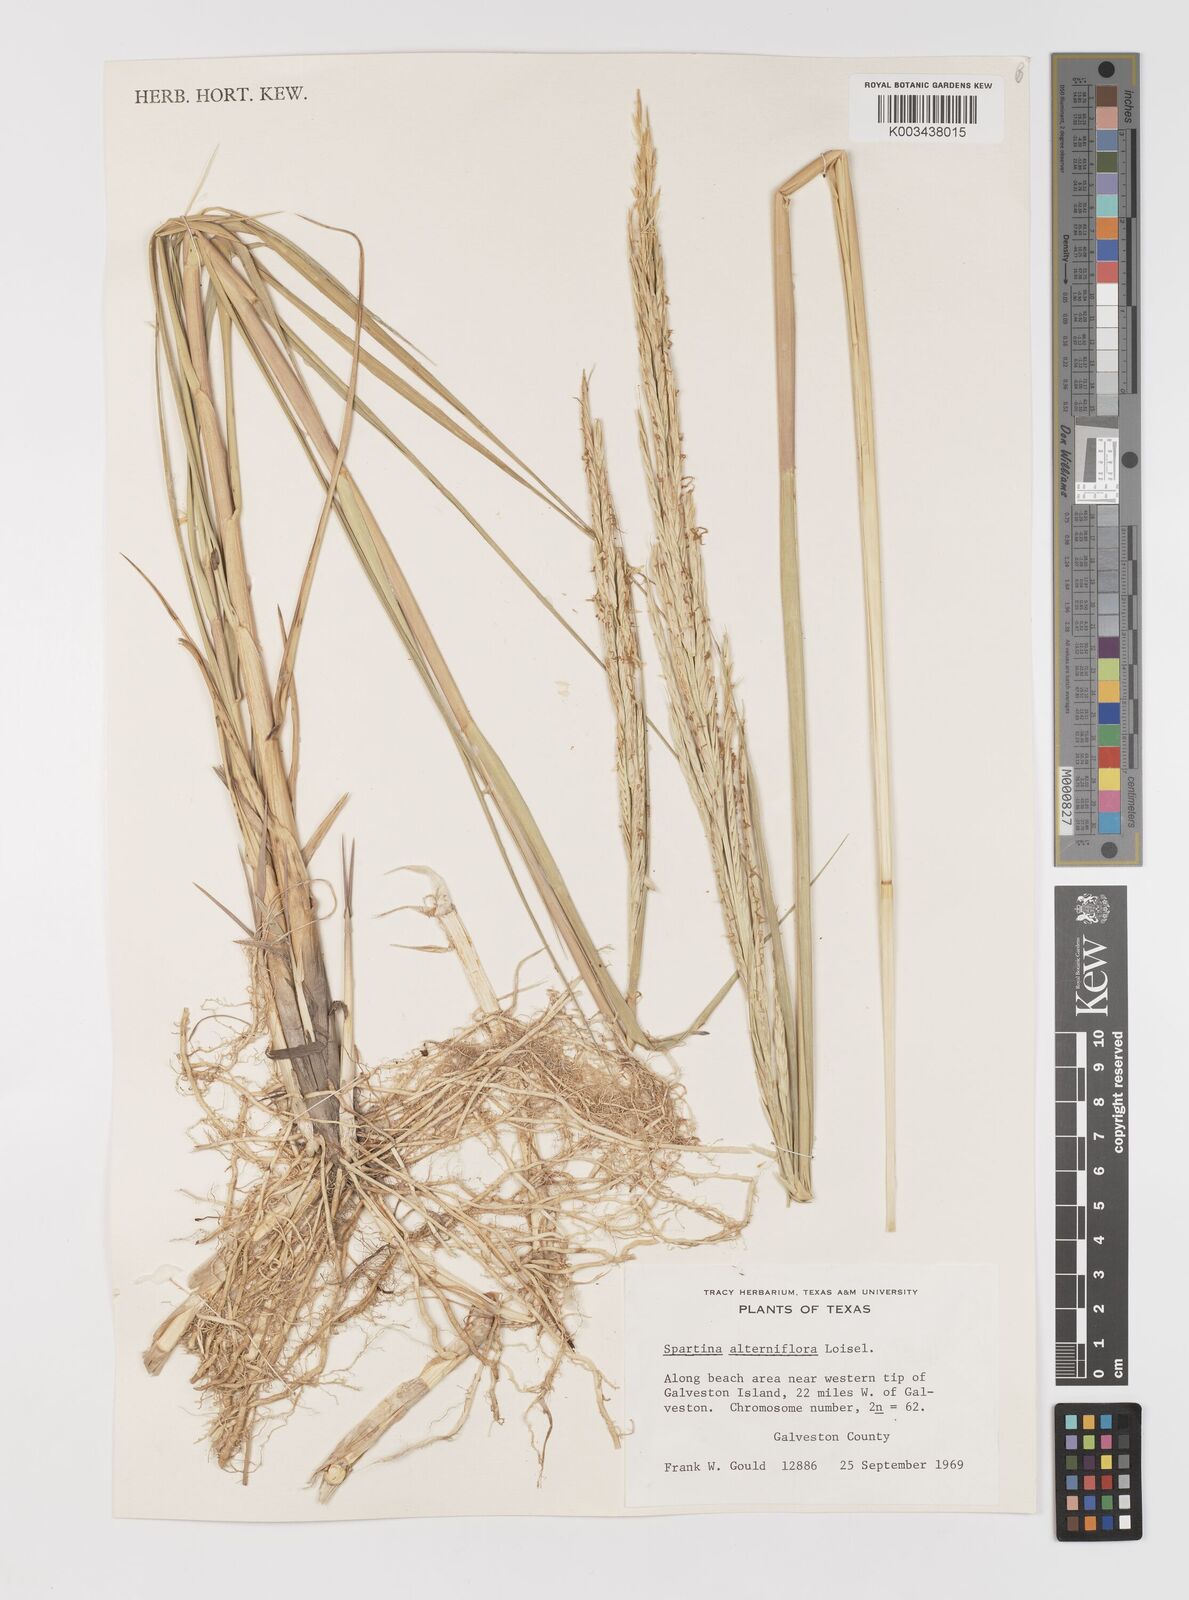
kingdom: Animalia
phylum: Mollusca
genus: Spartina
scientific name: Spartina
